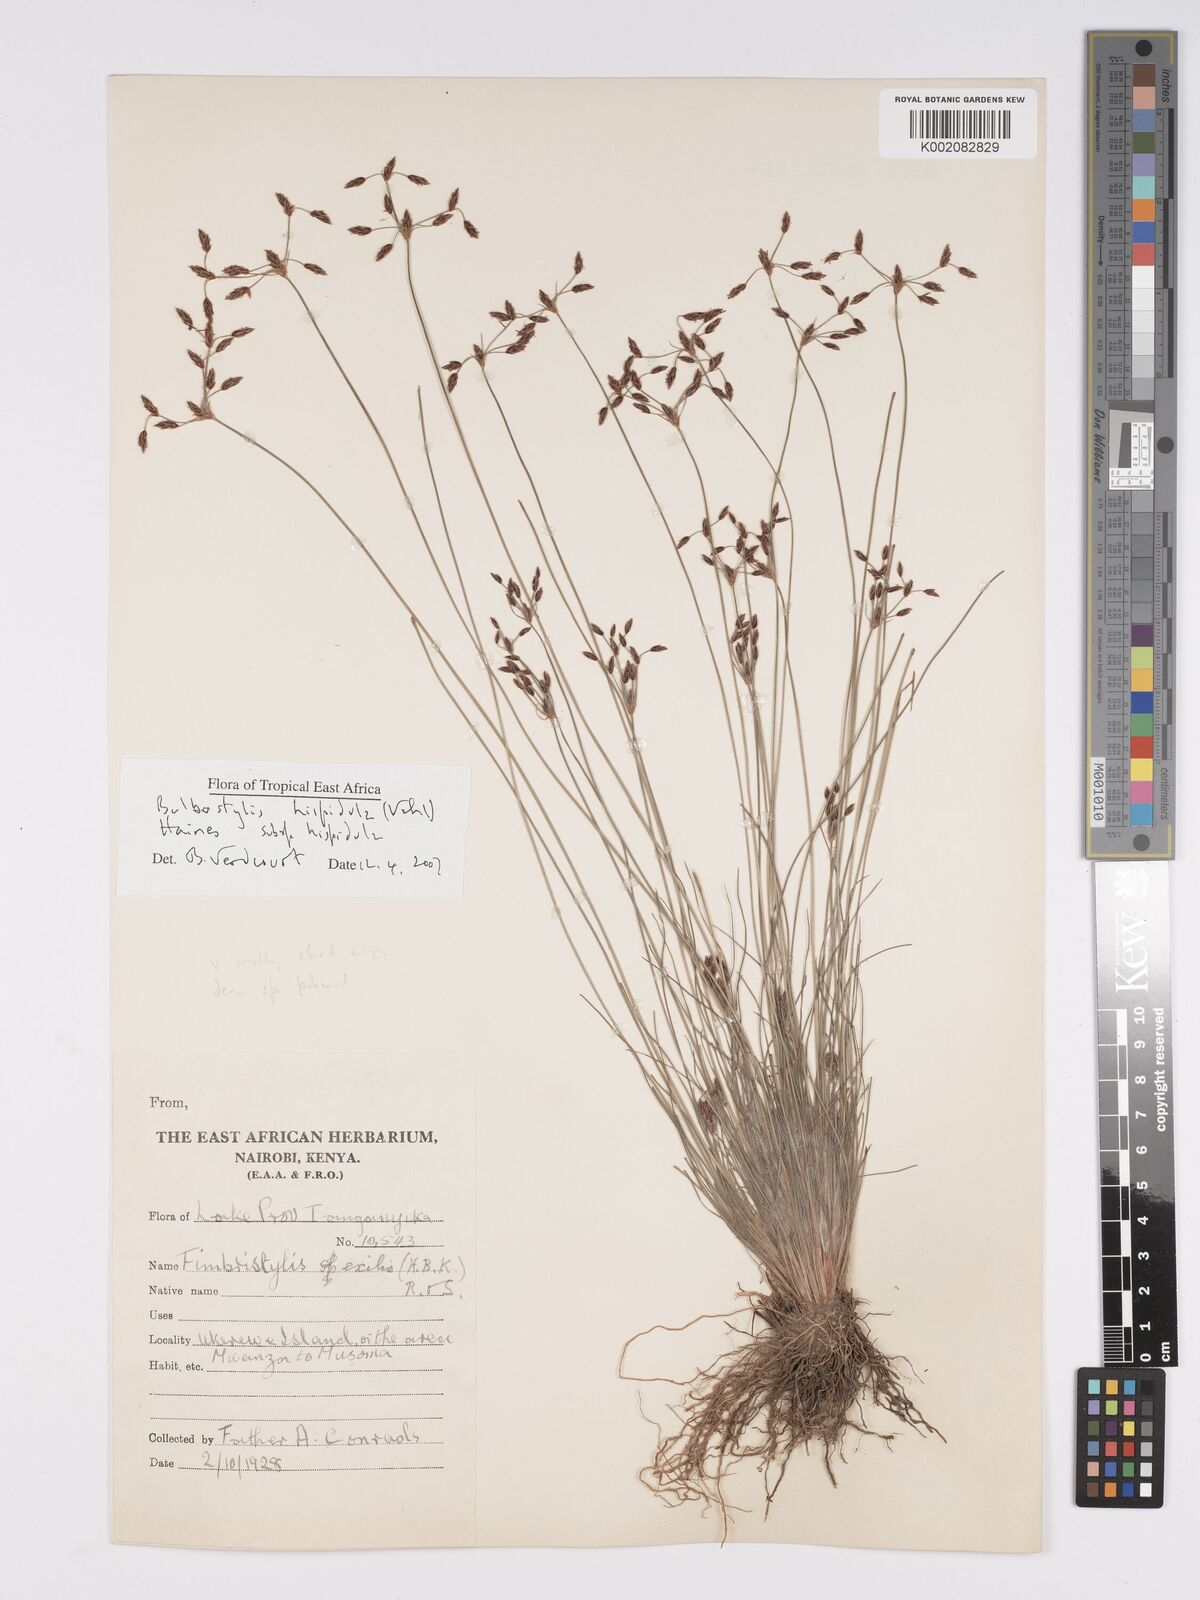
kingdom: Plantae
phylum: Tracheophyta
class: Liliopsida
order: Poales
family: Cyperaceae
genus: Bulbostylis
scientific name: Bulbostylis hispidula
